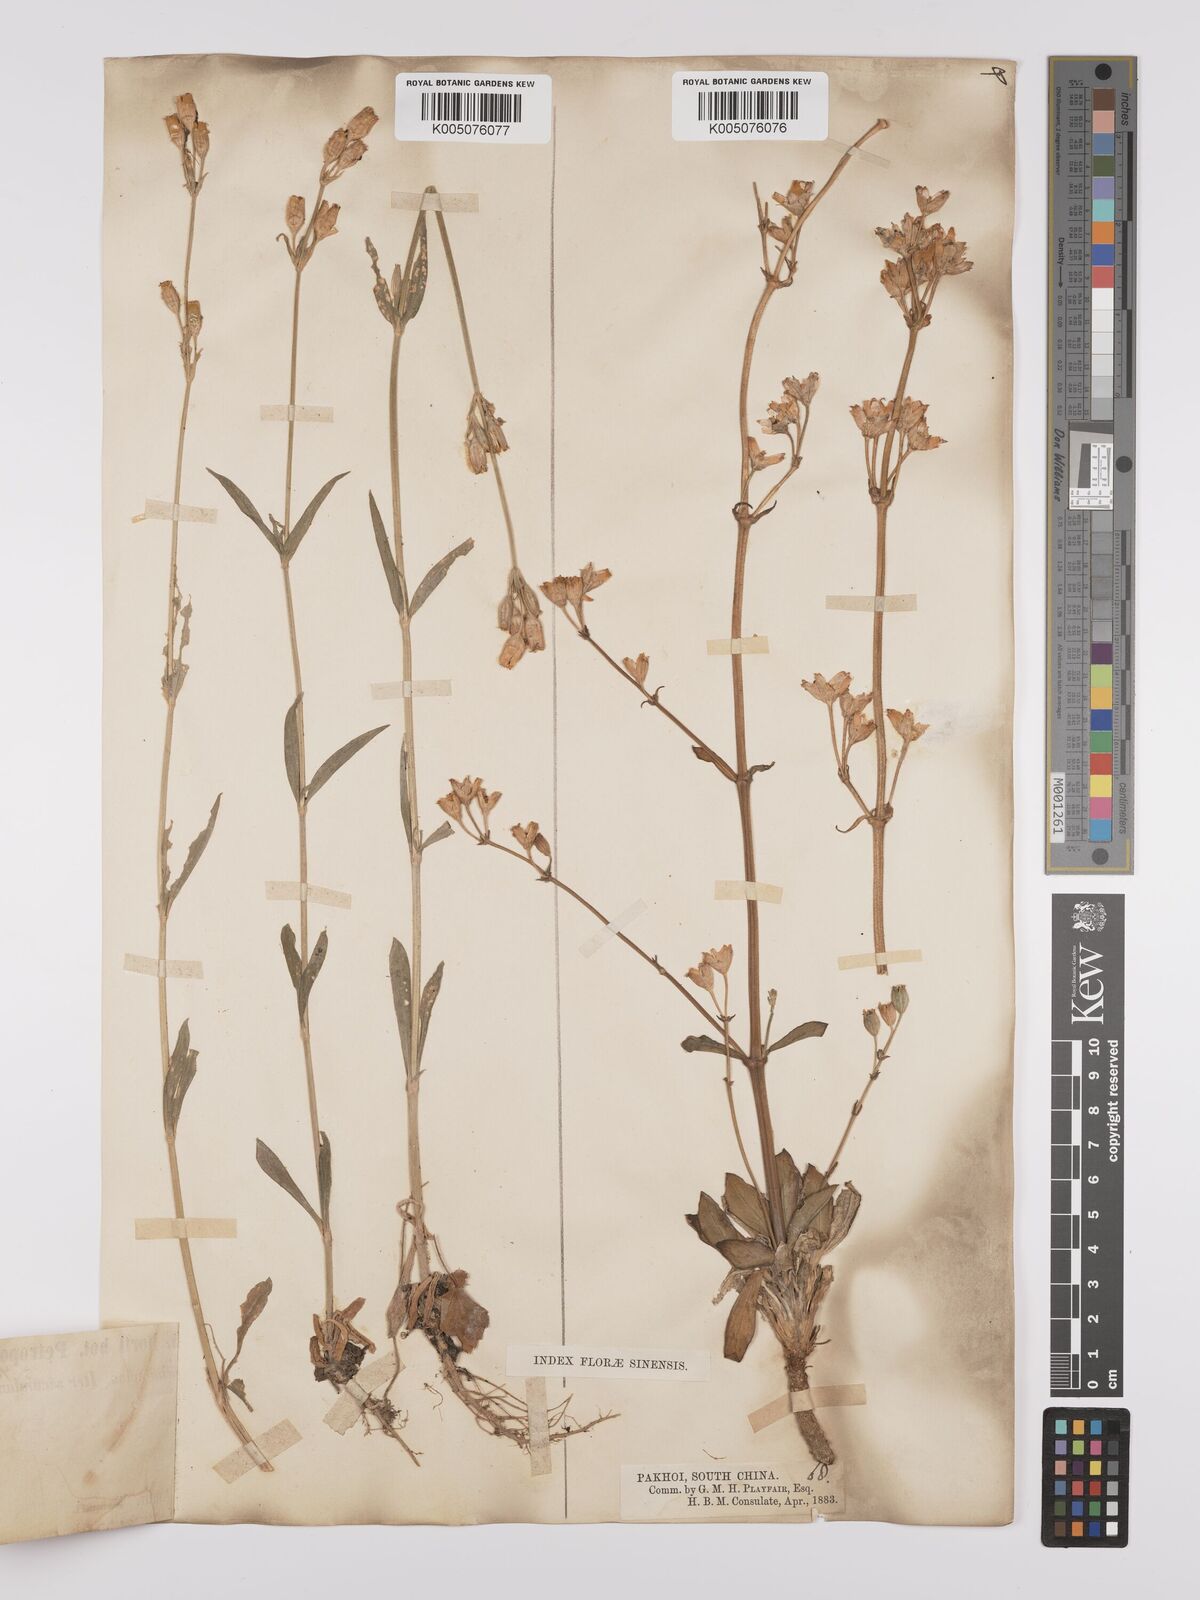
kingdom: Plantae
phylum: Tracheophyta
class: Magnoliopsida
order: Caryophyllales
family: Caryophyllaceae
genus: Silene
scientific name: Silene aprica
